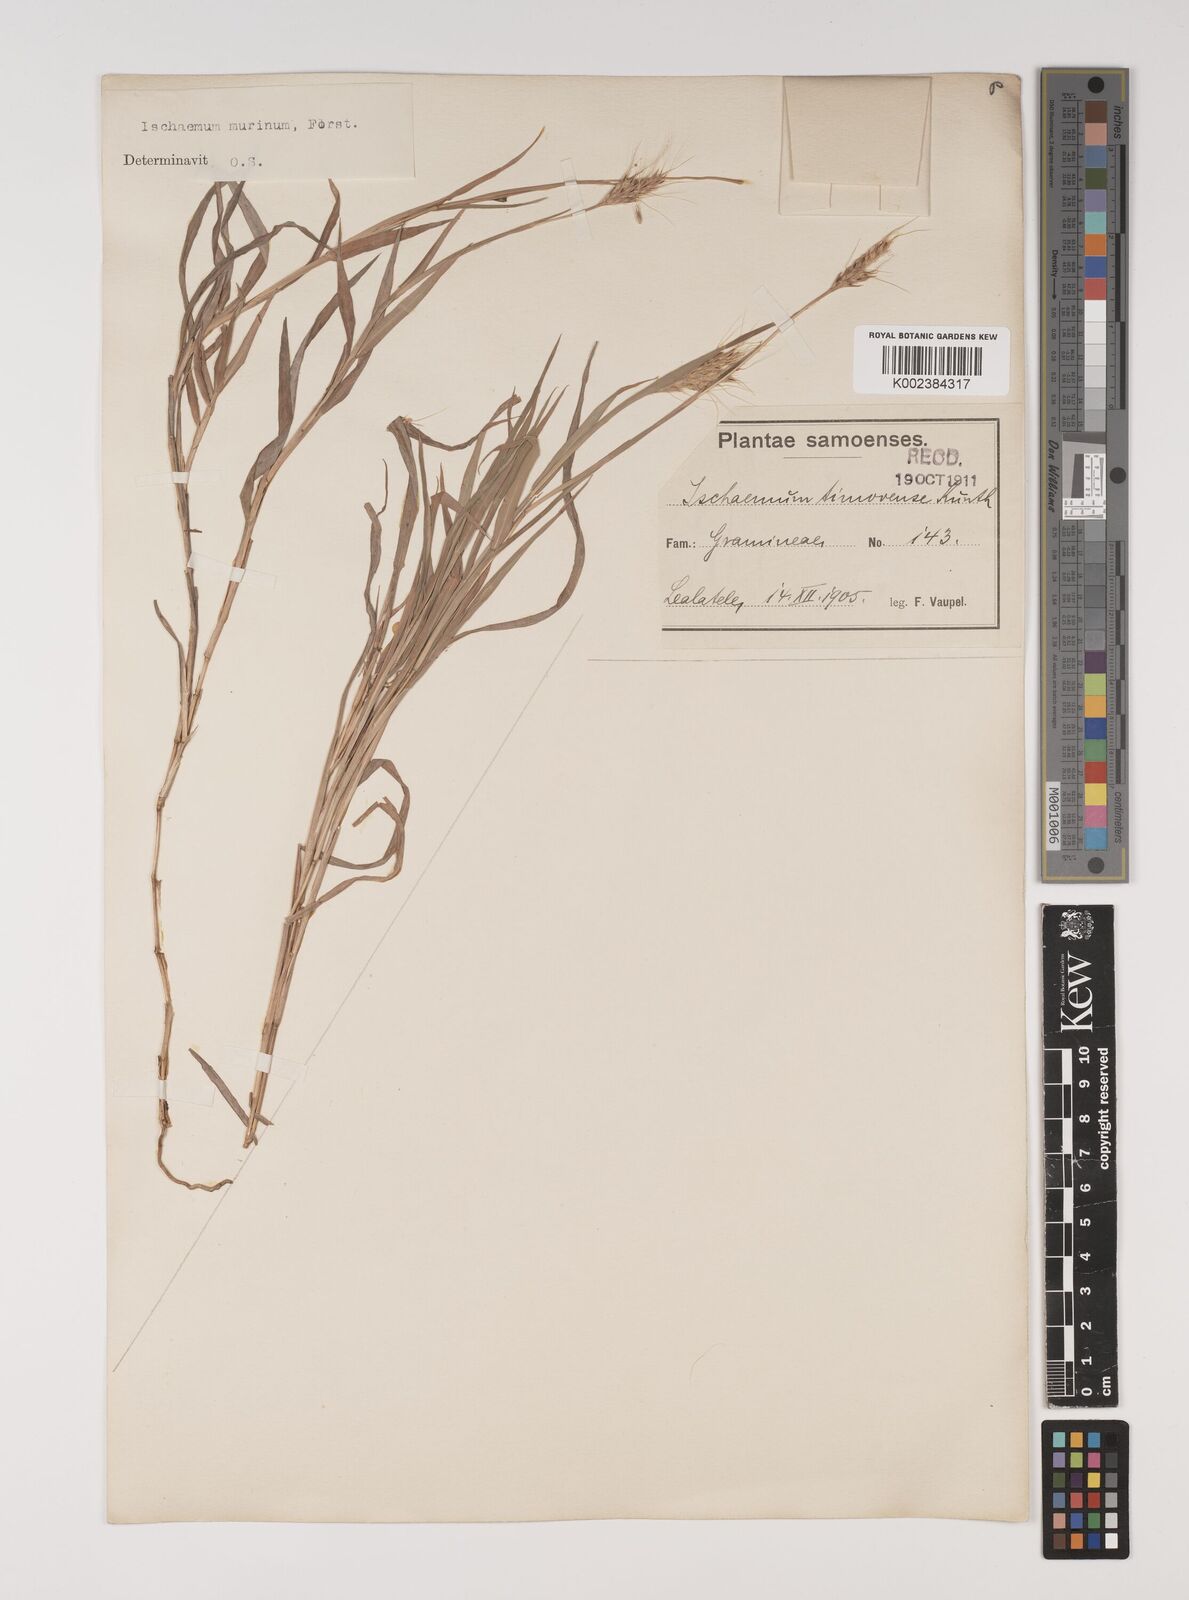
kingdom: Plantae
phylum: Tracheophyta
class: Liliopsida
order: Poales
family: Poaceae
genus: Ischaemum
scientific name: Ischaemum murinum
